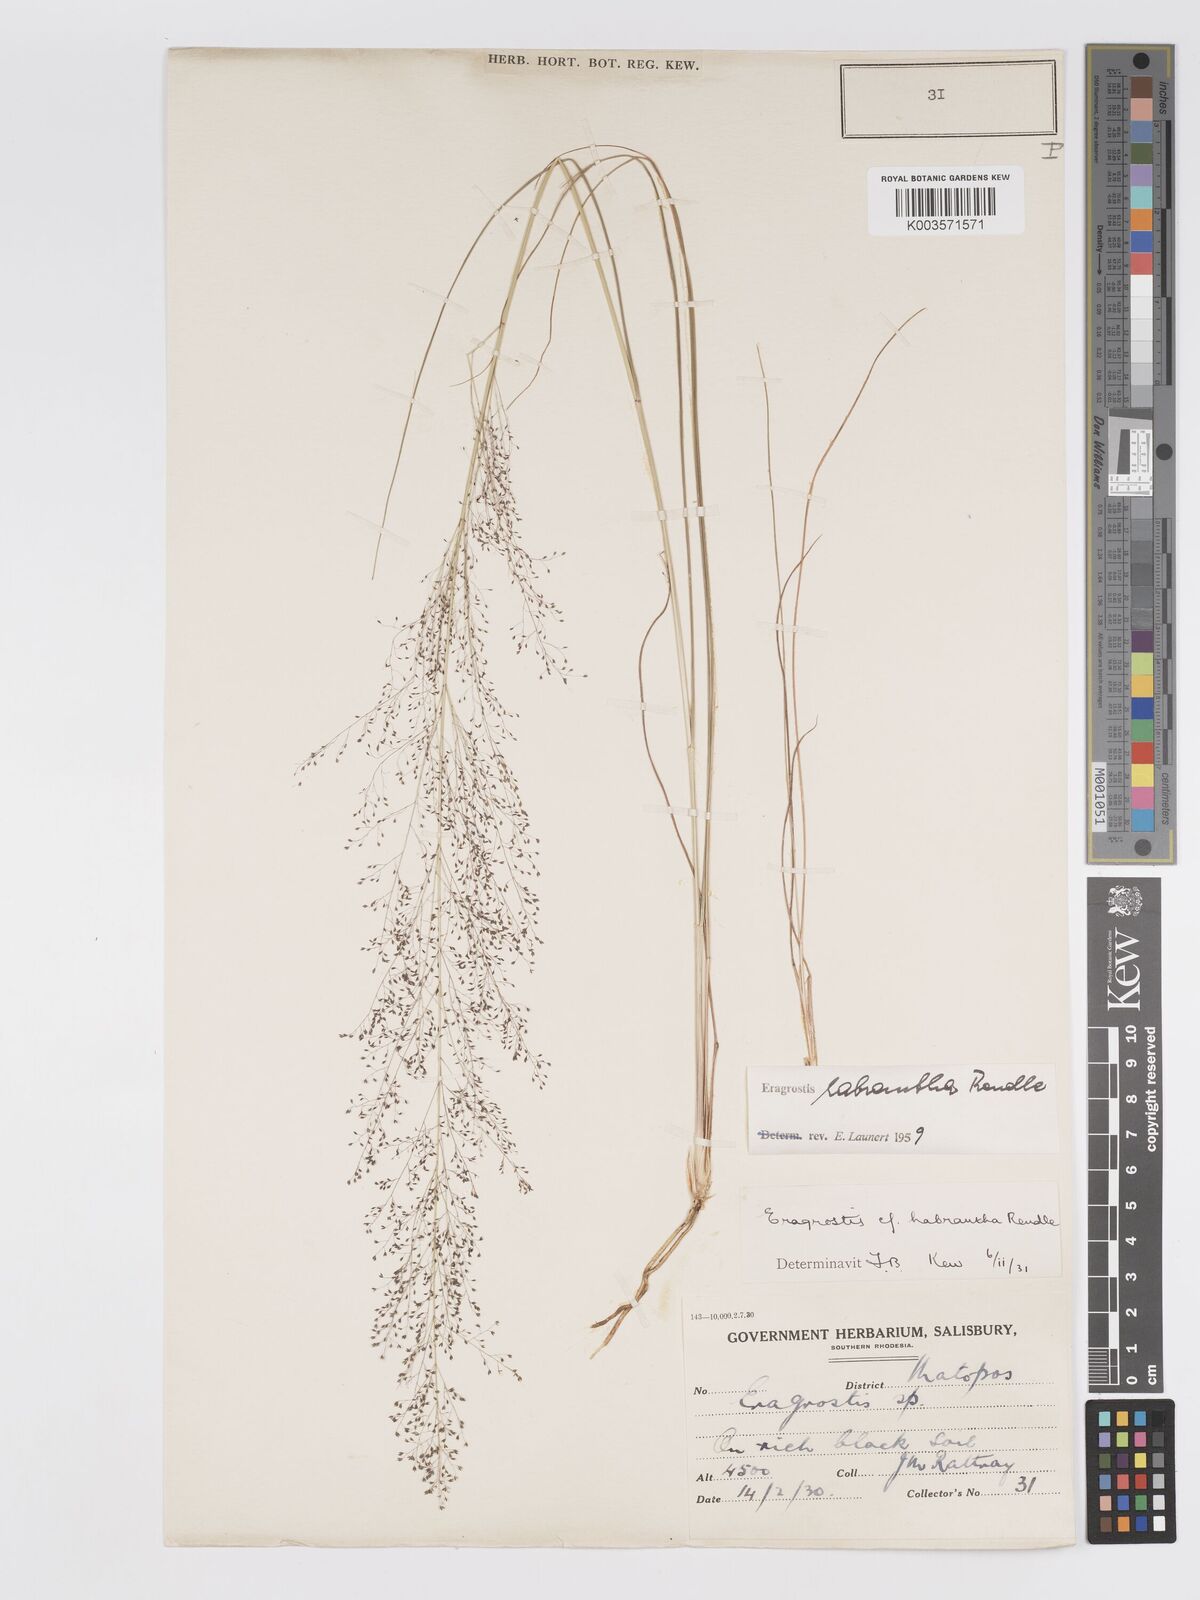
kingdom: Plantae
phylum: Tracheophyta
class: Liliopsida
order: Poales
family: Poaceae
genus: Eragrostis
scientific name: Eragrostis habrantha
